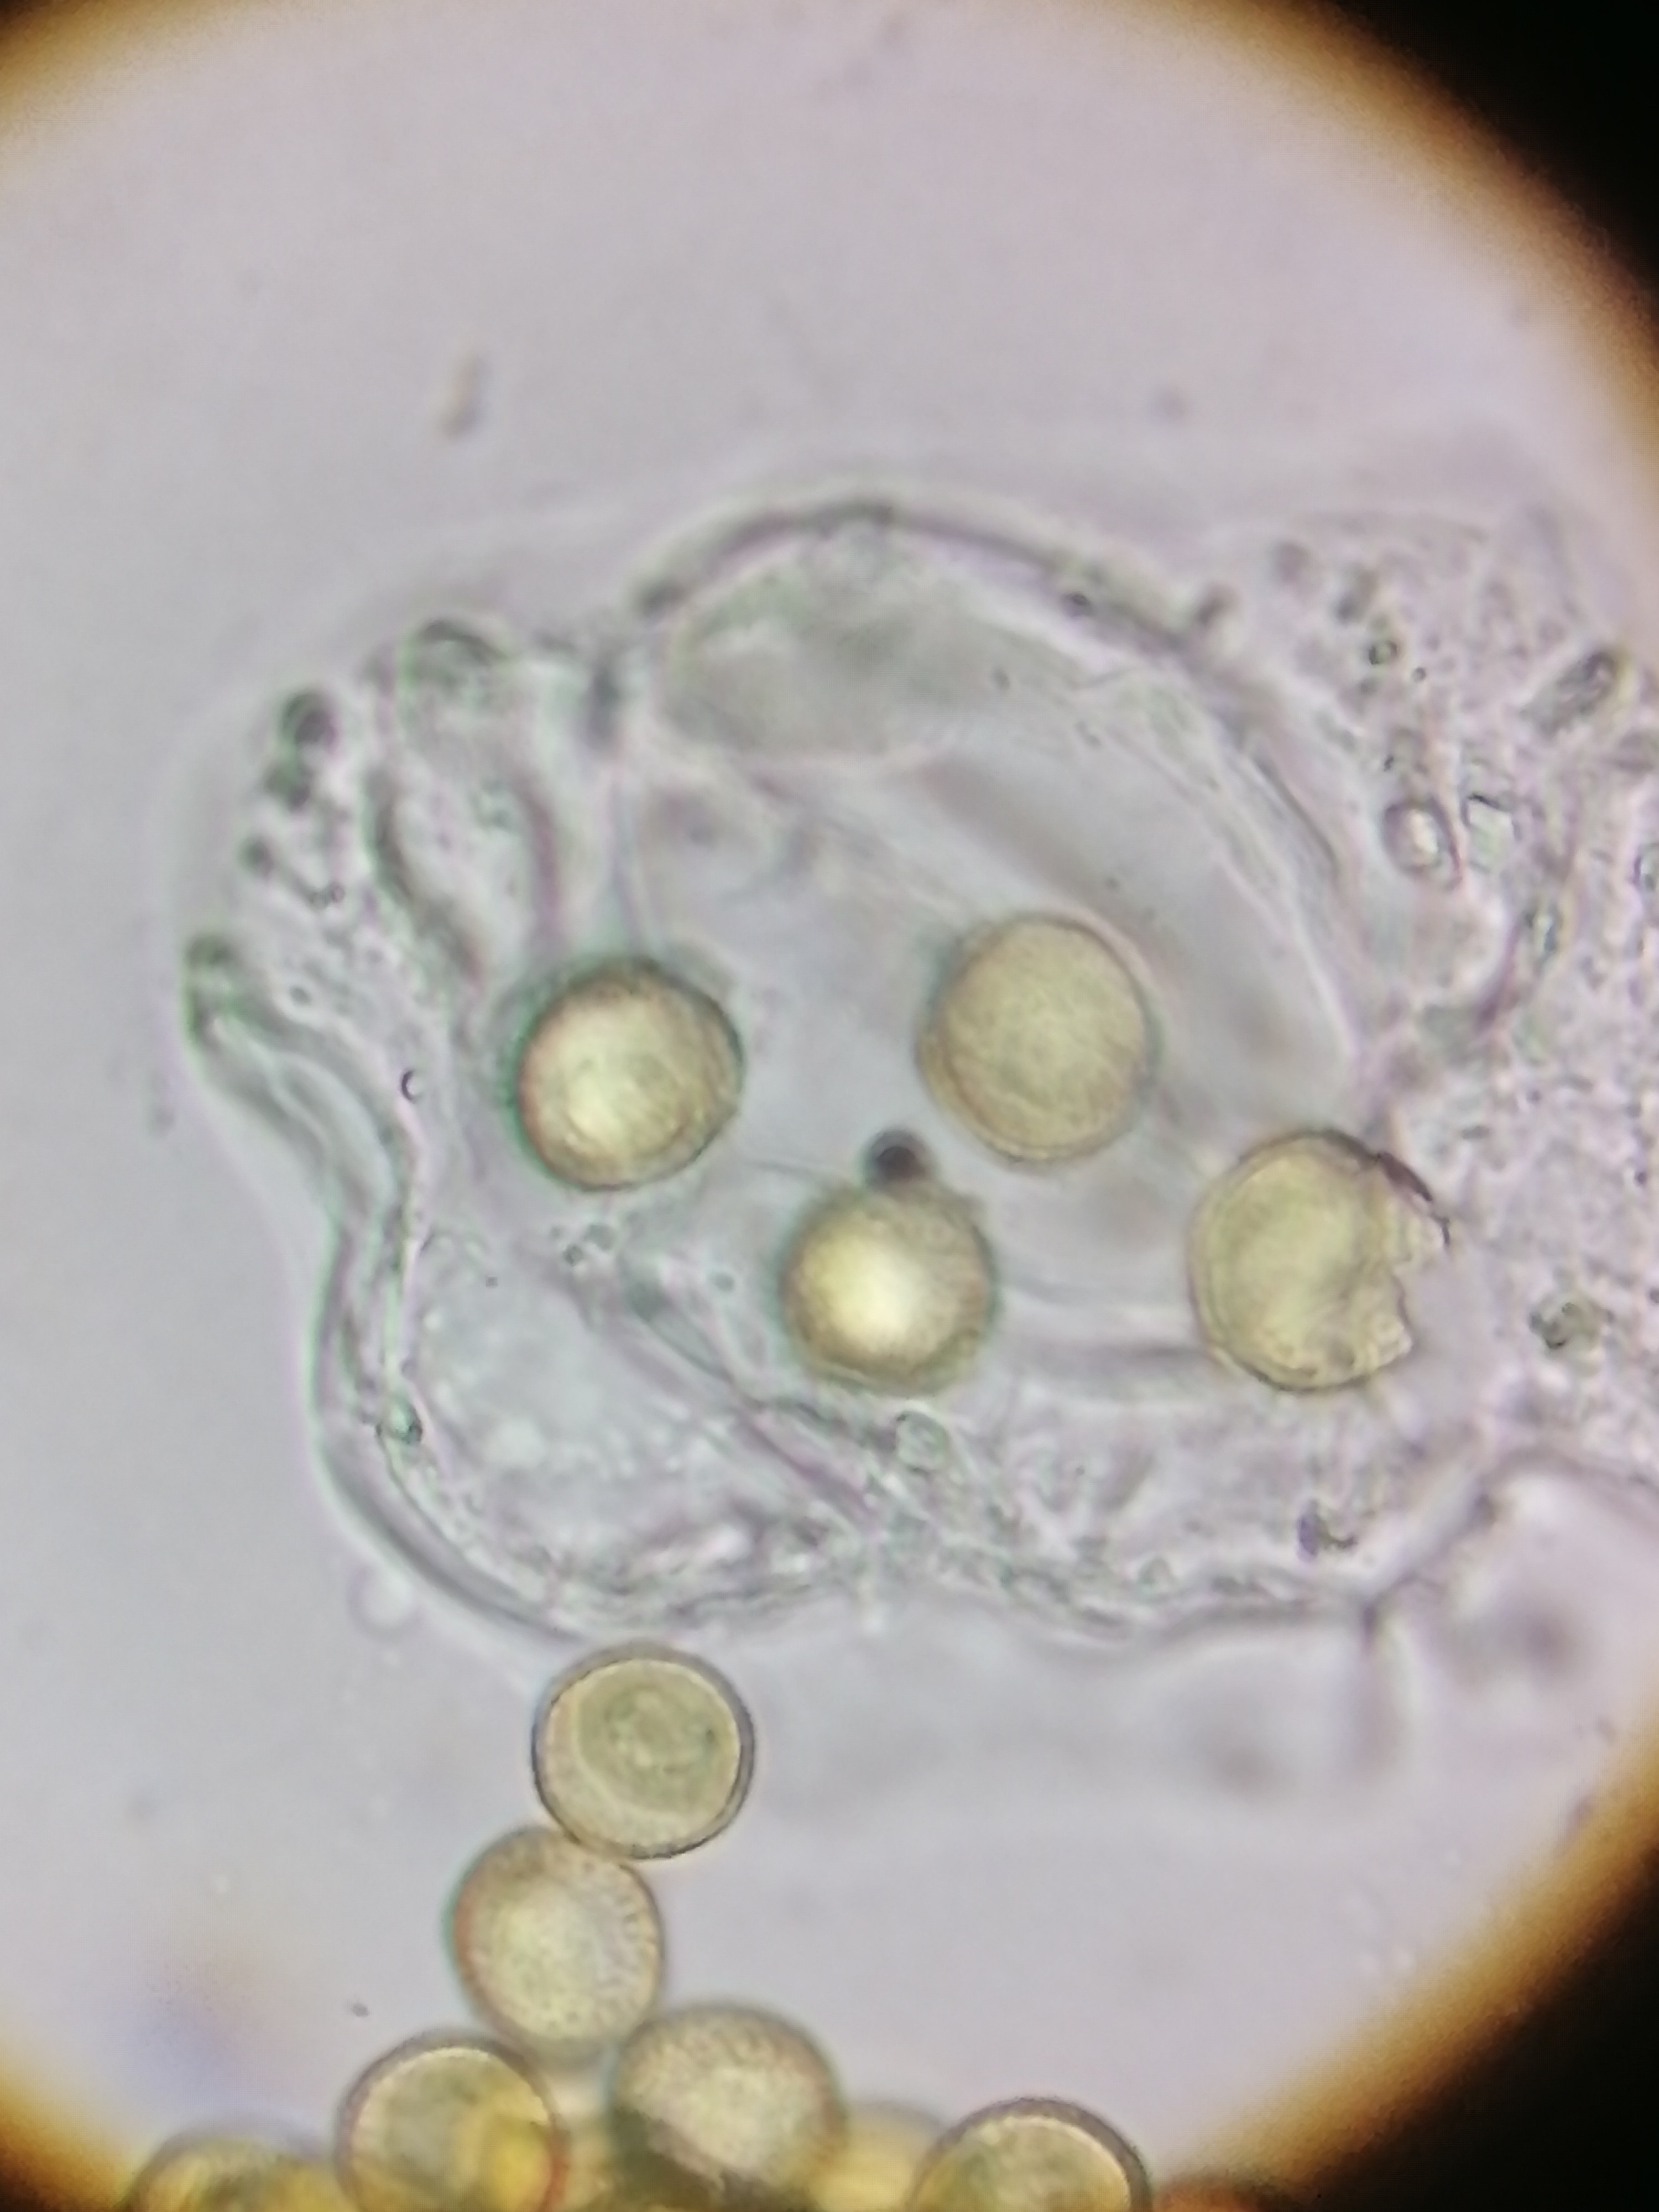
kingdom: Protozoa
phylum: Mycetozoa
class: Myxomycetes
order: Trichiales
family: Trichiaceae
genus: Trichia
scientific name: Trichia
